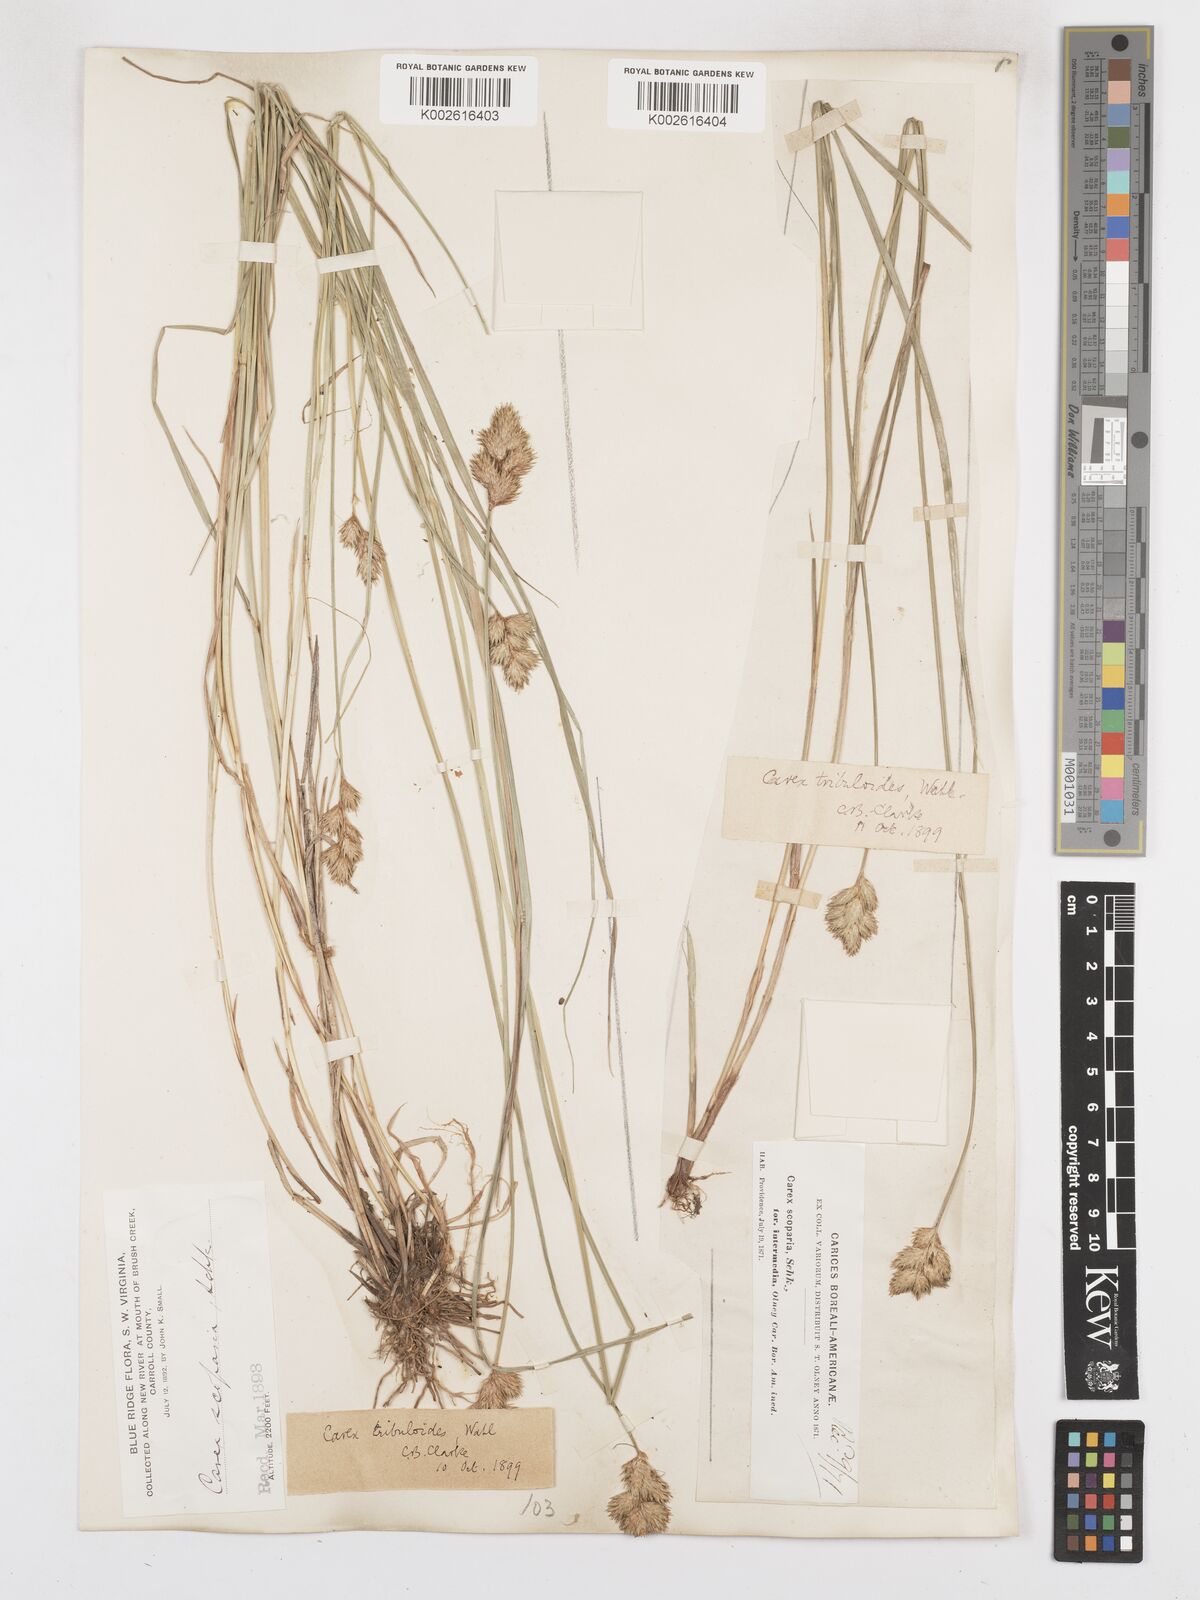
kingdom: Plantae
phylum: Tracheophyta
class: Liliopsida
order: Poales
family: Cyperaceae
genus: Carex
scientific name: Carex tribuloides
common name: Blunt broom sedge
